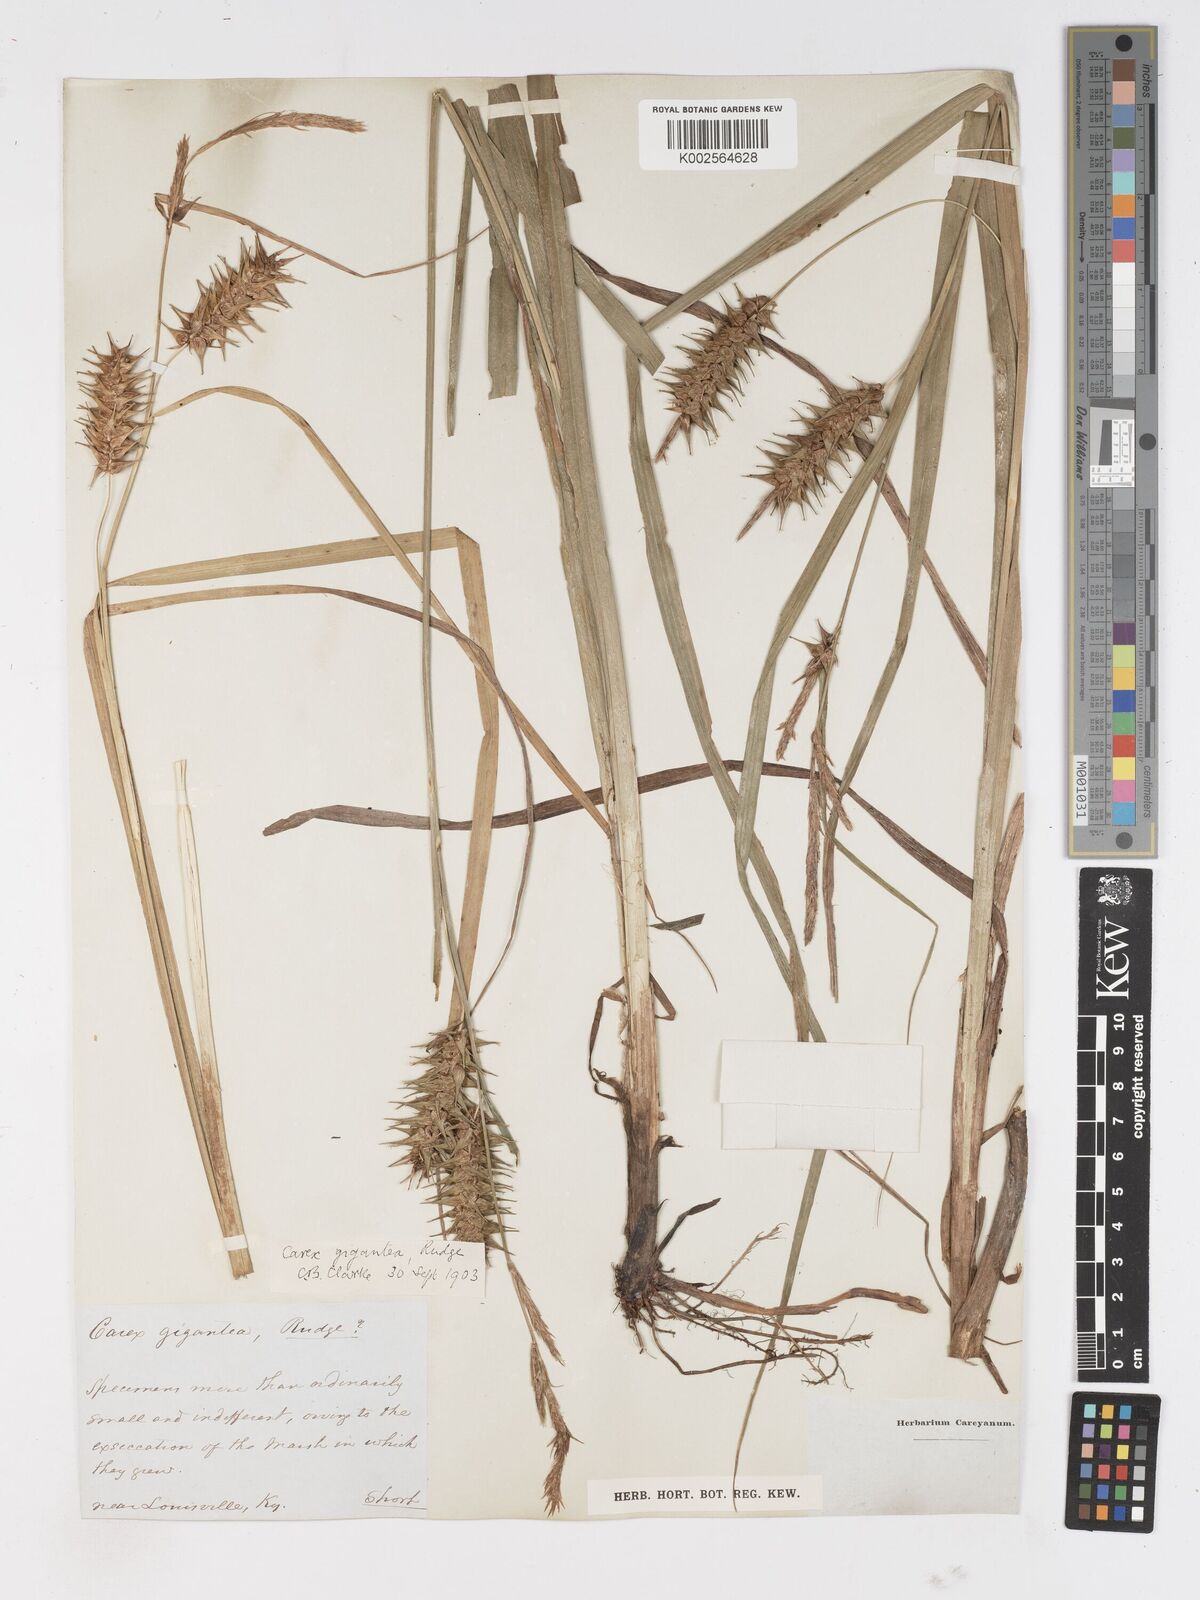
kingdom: Plantae
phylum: Tracheophyta
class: Liliopsida
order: Poales
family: Cyperaceae
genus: Carex
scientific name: Carex gigantea
